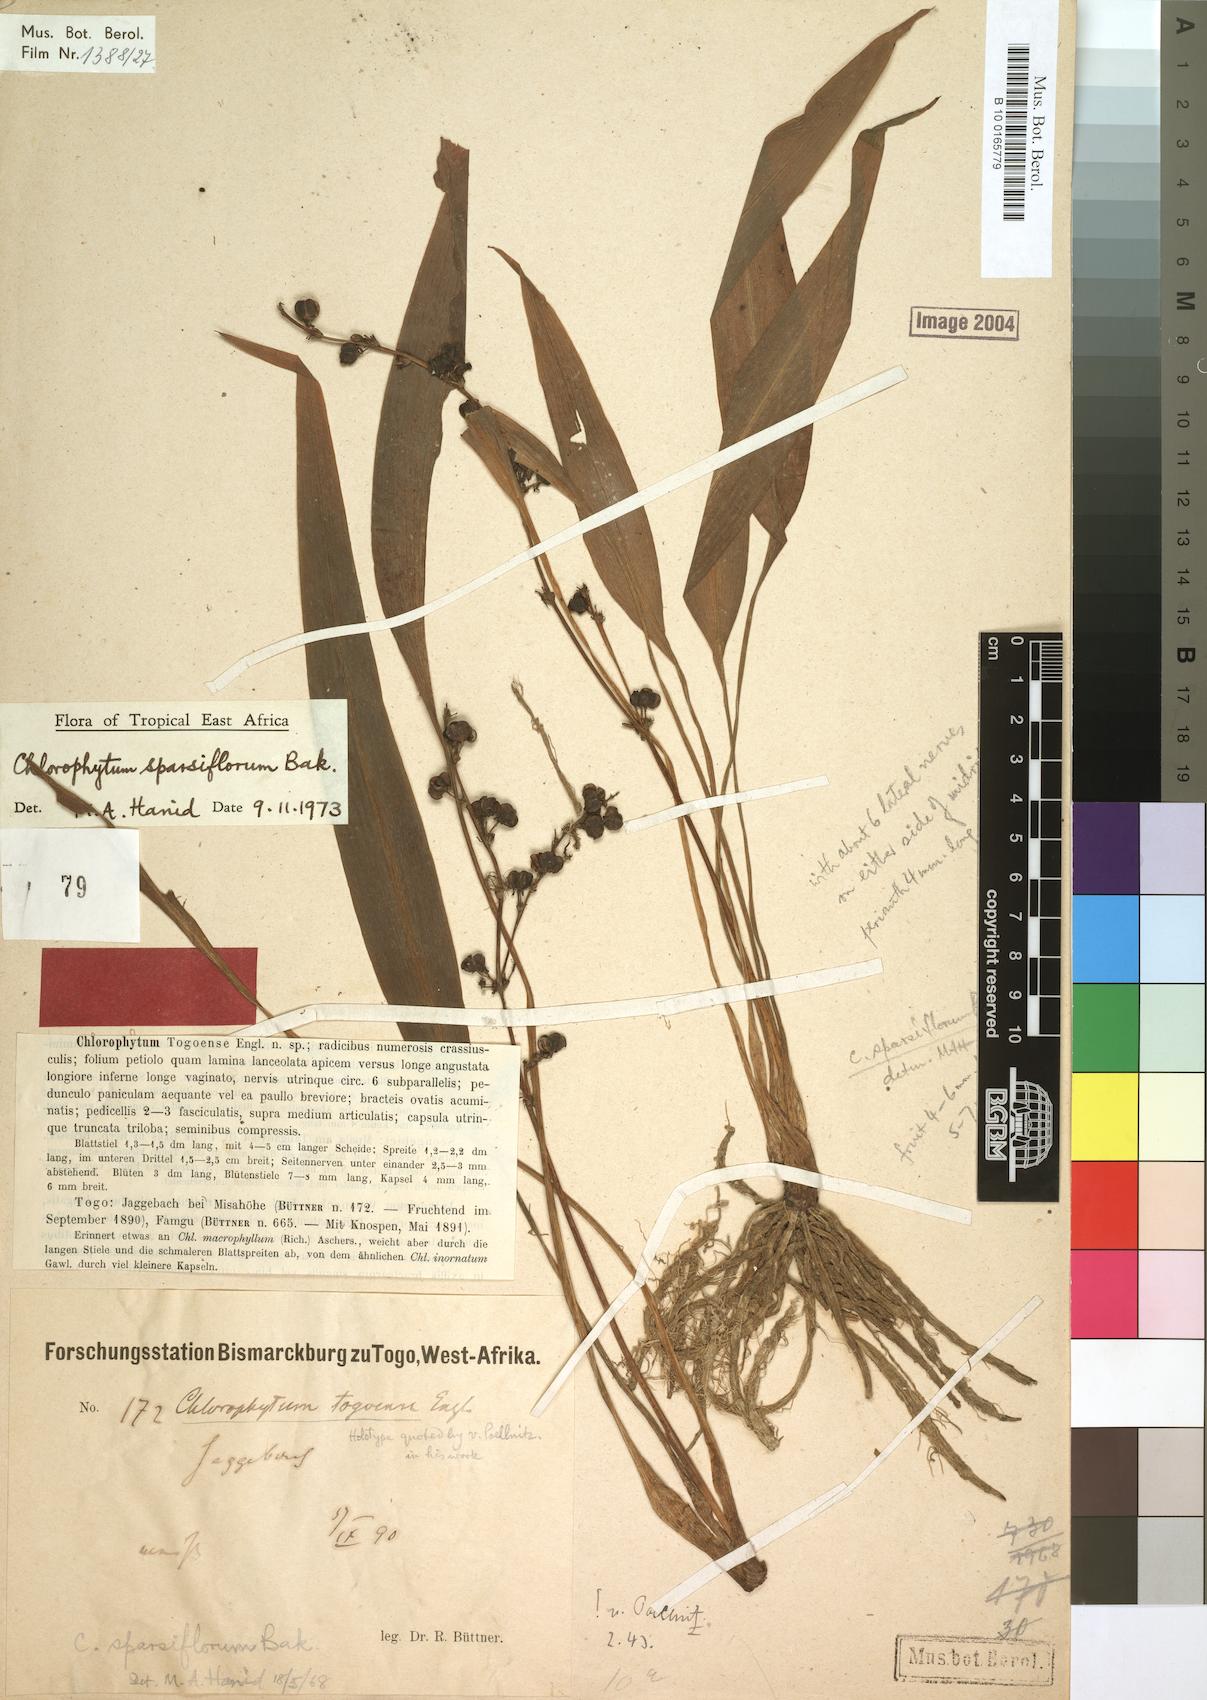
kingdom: Plantae
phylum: Tracheophyta
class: Liliopsida
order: Asparagales
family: Asparagaceae
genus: Chlorophytum
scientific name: Chlorophytum lancifolium
